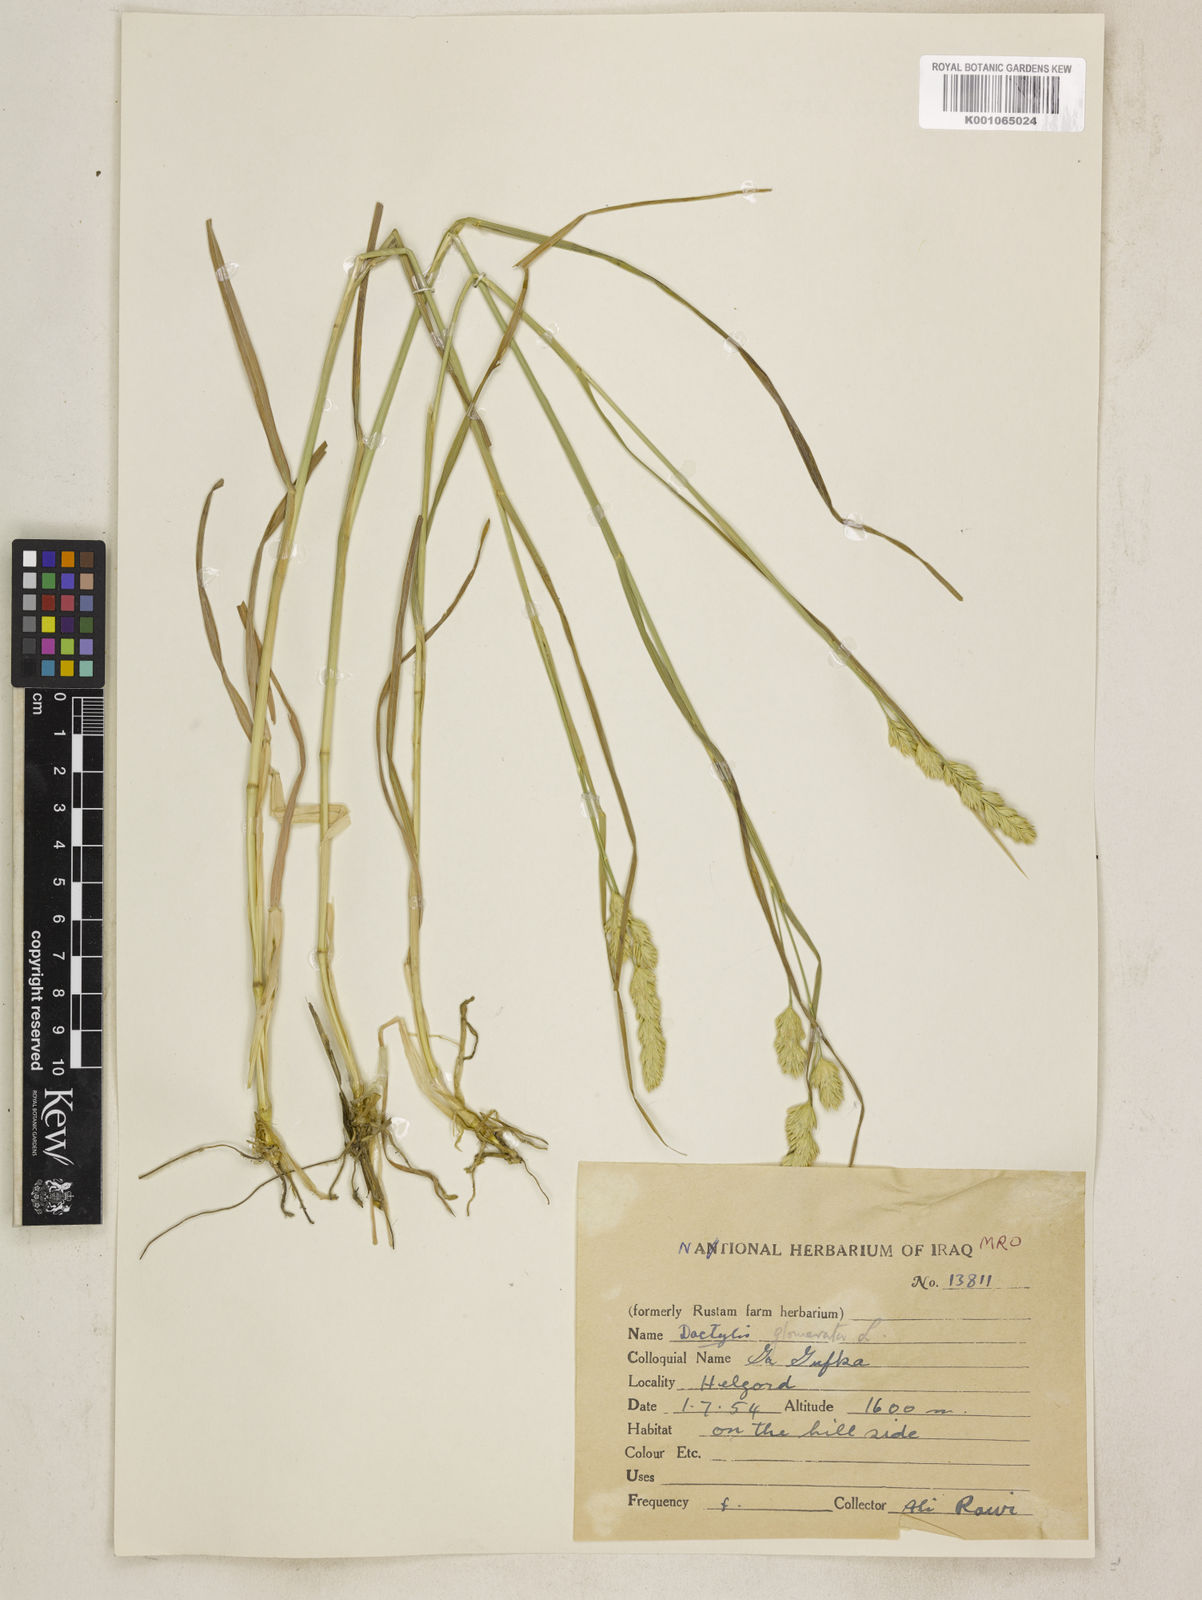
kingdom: Plantae
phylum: Tracheophyta
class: Liliopsida
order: Poales
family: Poaceae
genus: Dactylis
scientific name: Dactylis glomerata
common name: Orchardgrass
